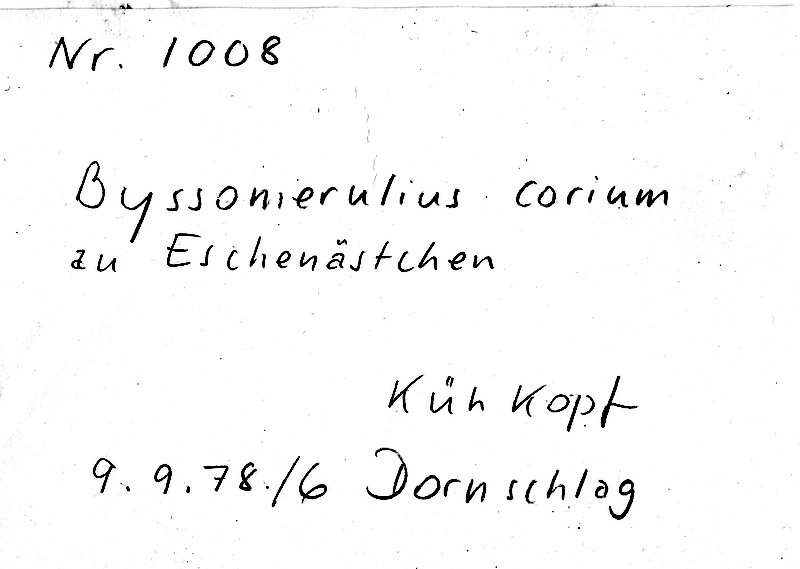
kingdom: Plantae
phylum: Tracheophyta
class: Magnoliopsida
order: Lamiales
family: Oleaceae
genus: Fraxinus
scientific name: Fraxinus
